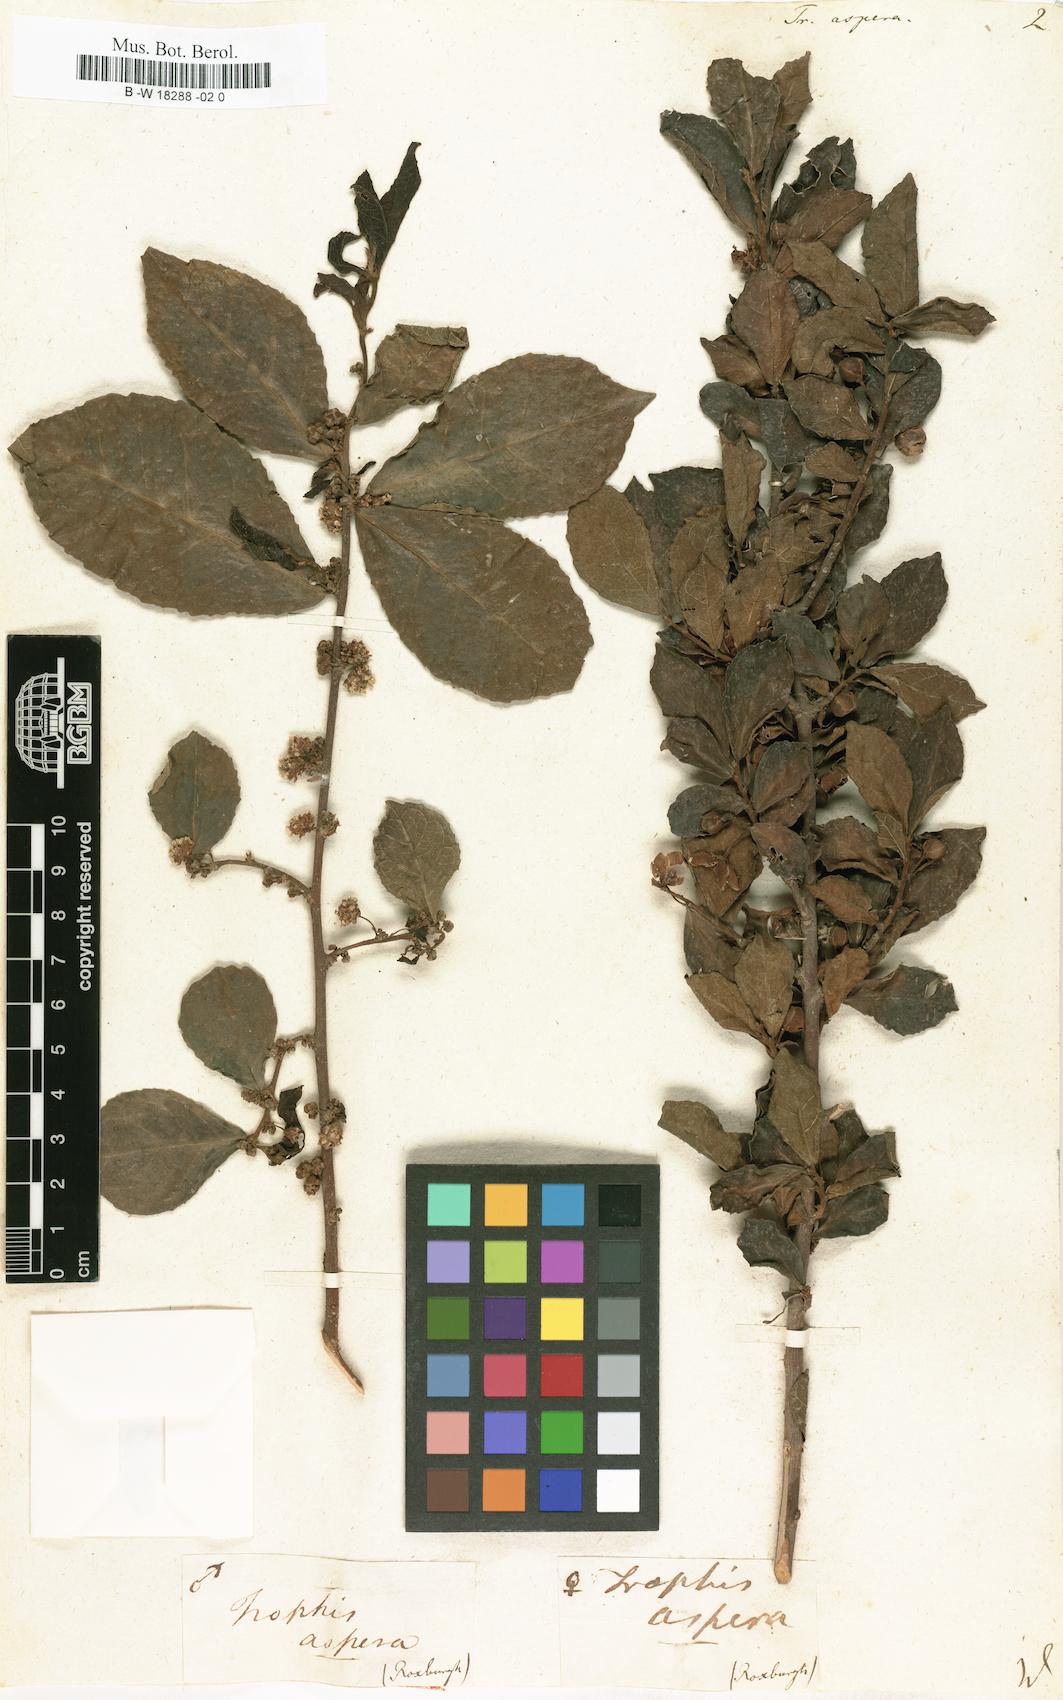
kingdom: Plantae
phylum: Tracheophyta
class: Magnoliopsida
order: Rosales
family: Moraceae
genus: Streblus
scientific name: Streblus asper
